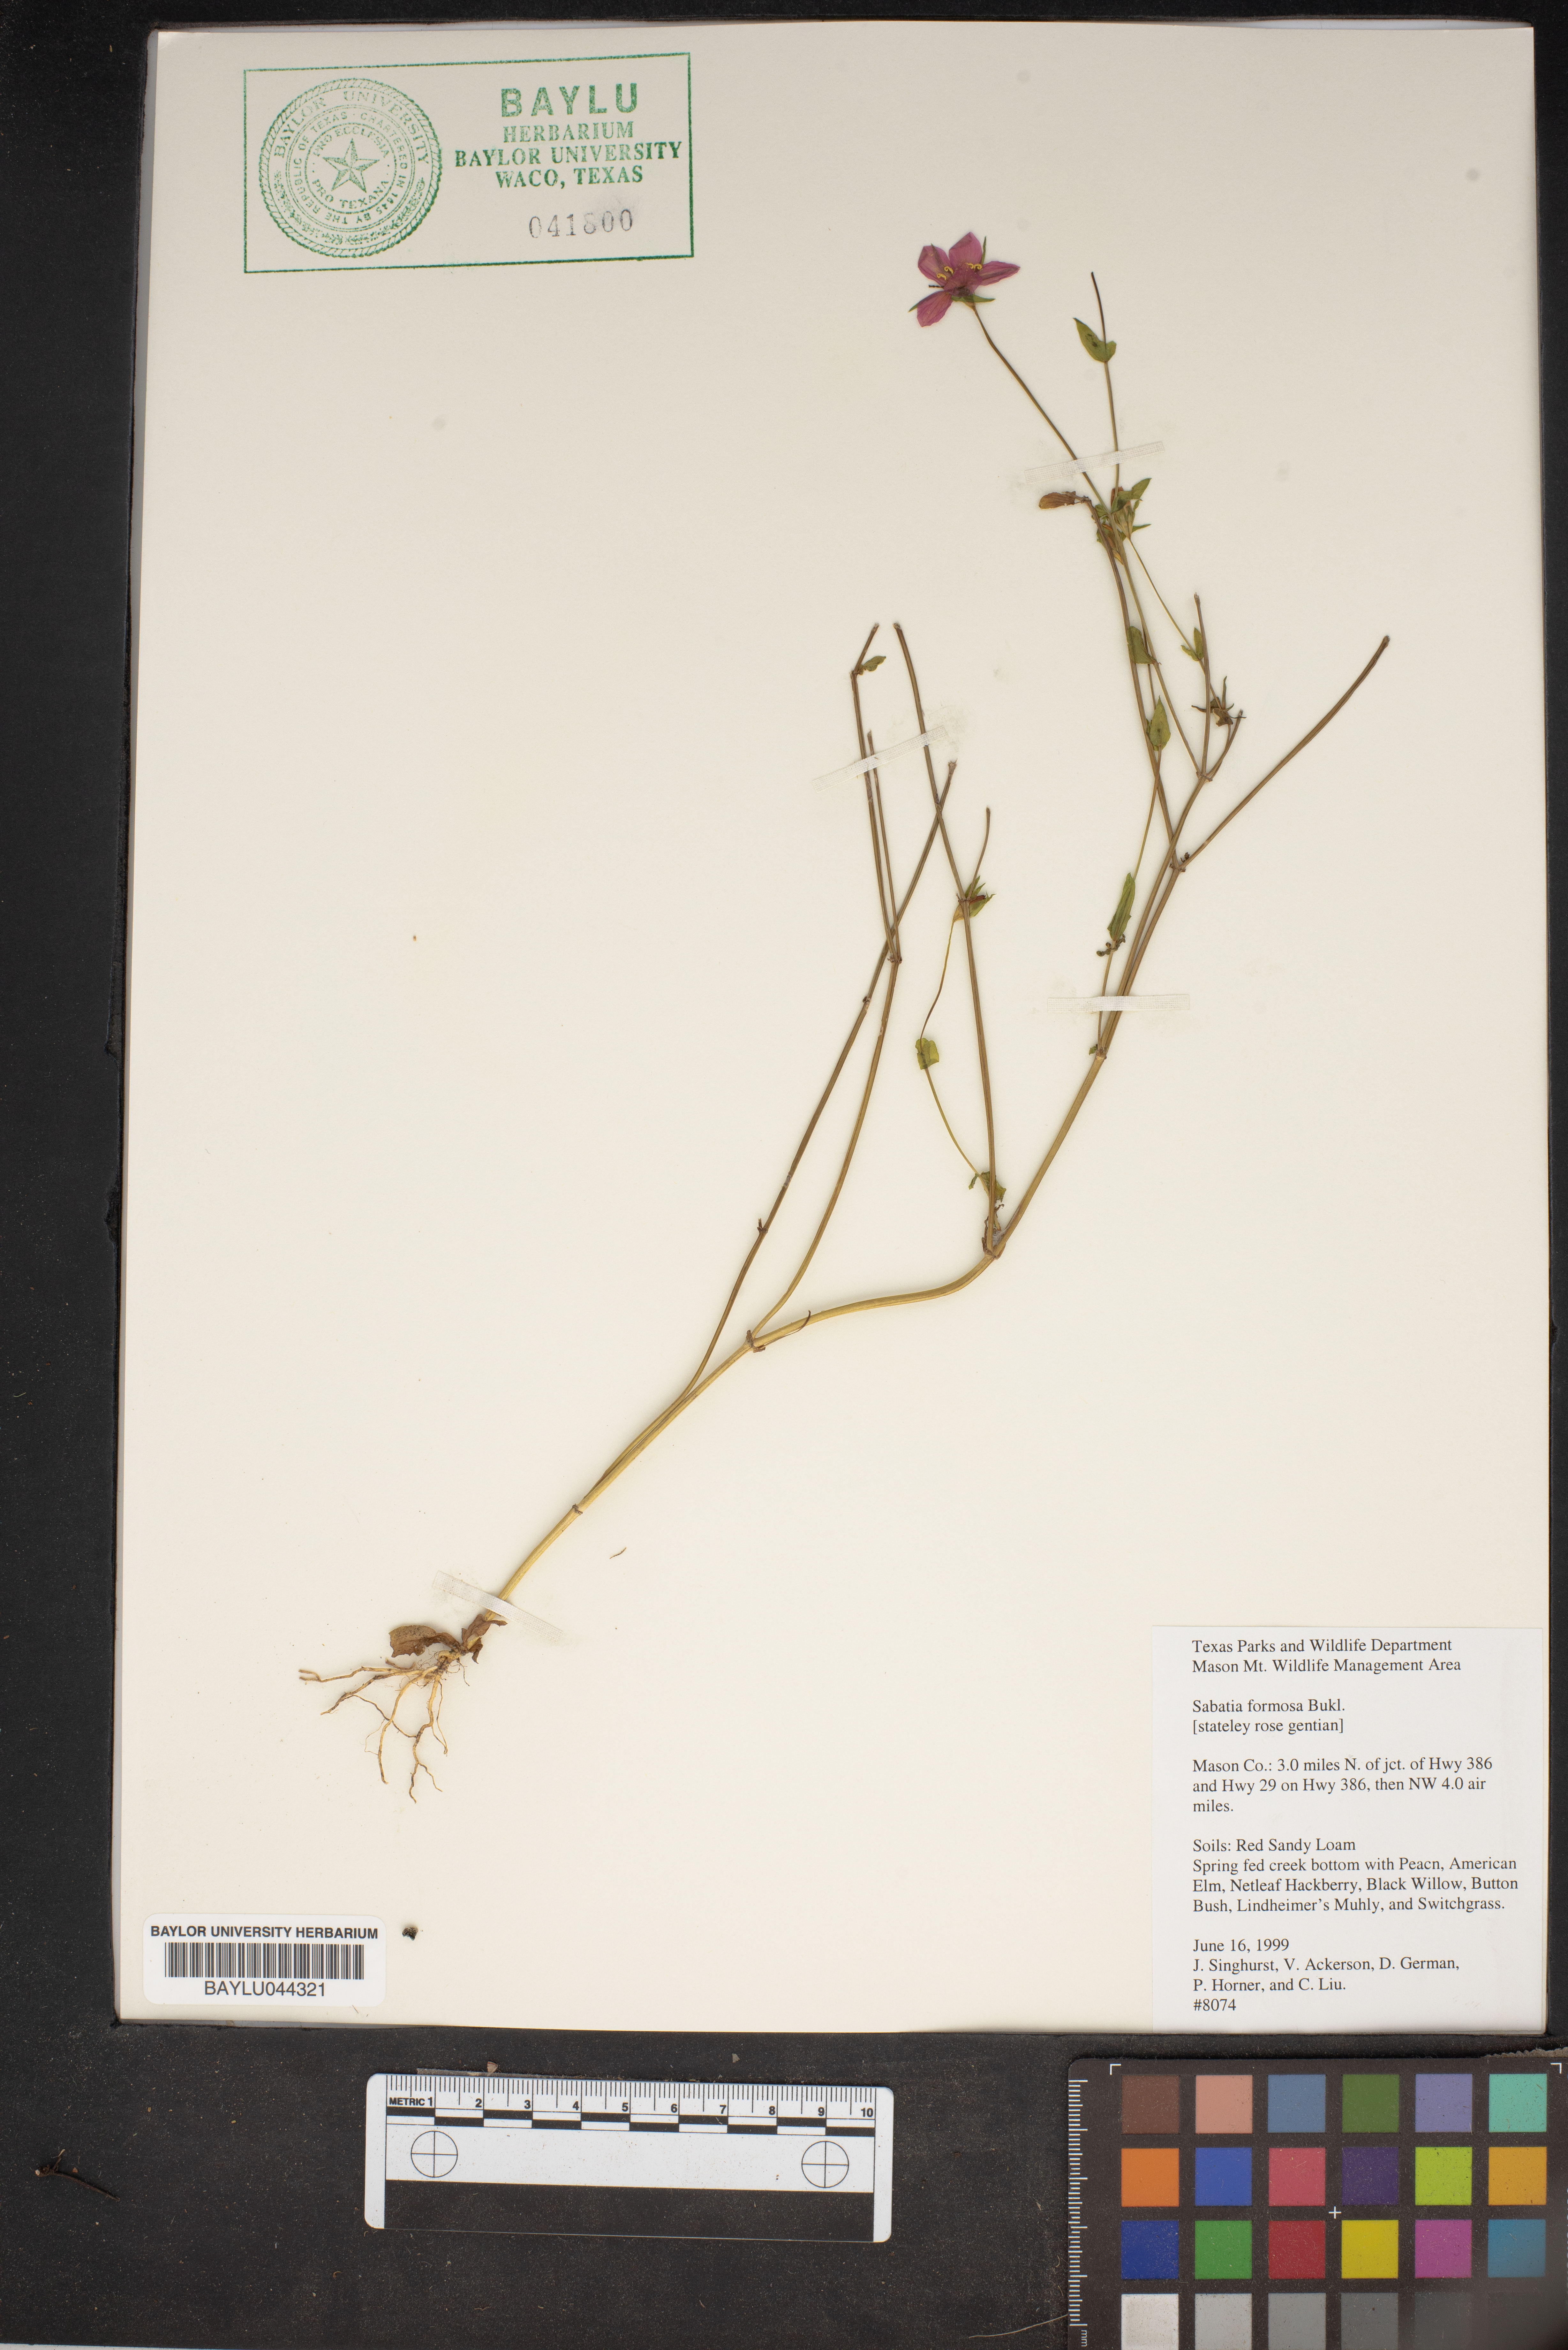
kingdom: Plantae
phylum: Tracheophyta
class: Magnoliopsida
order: Gentianales
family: Gentianaceae
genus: Sabatia
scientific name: Sabatia formosa
